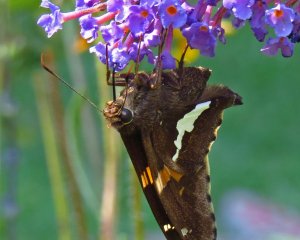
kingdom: Animalia
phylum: Arthropoda
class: Insecta
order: Lepidoptera
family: Hesperiidae
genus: Epargyreus
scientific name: Epargyreus clarus
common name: Silver-spotted Skipper
